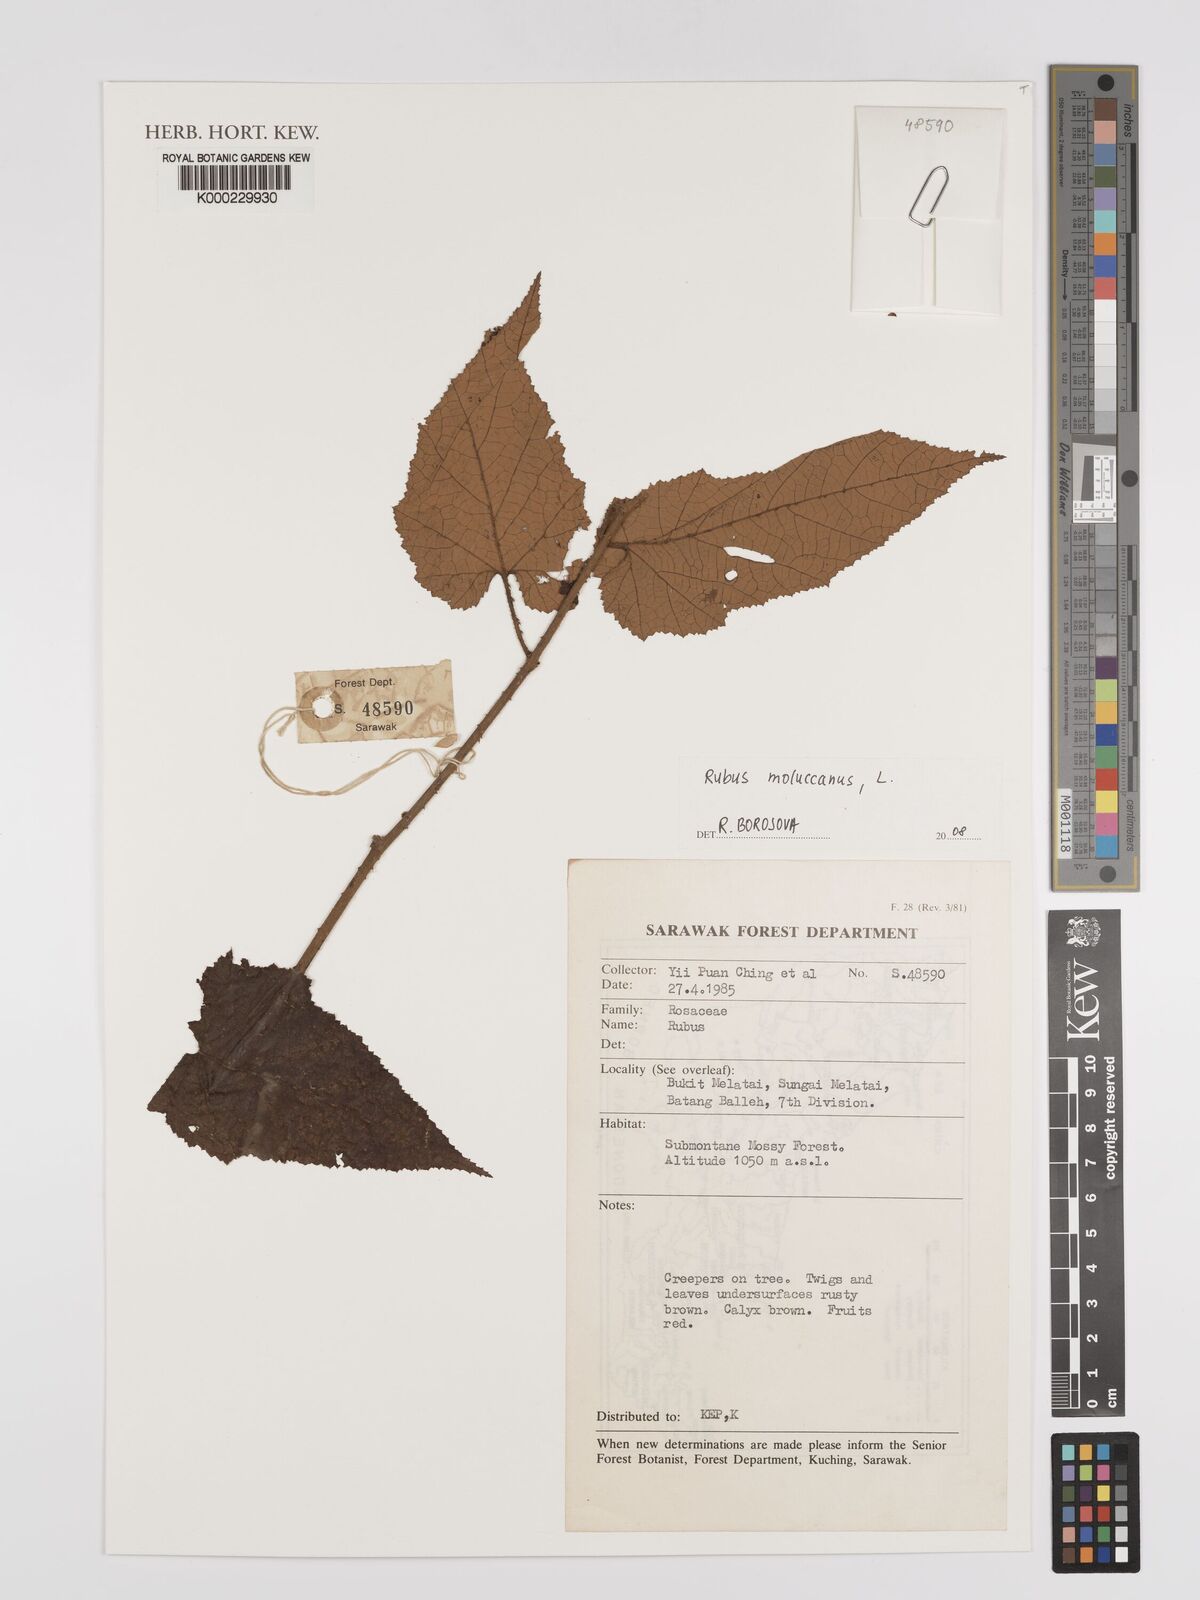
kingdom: Plantae
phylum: Tracheophyta
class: Magnoliopsida
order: Rosales
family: Rosaceae
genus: Rubus
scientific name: Rubus moluccanus
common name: Wild raspberry
